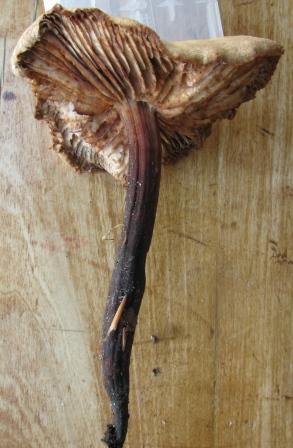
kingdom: Fungi
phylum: Basidiomycota
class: Agaricomycetes
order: Agaricales
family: Omphalotaceae
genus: Gymnopus
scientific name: Gymnopus fusipes
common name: tenstokket fladhat
